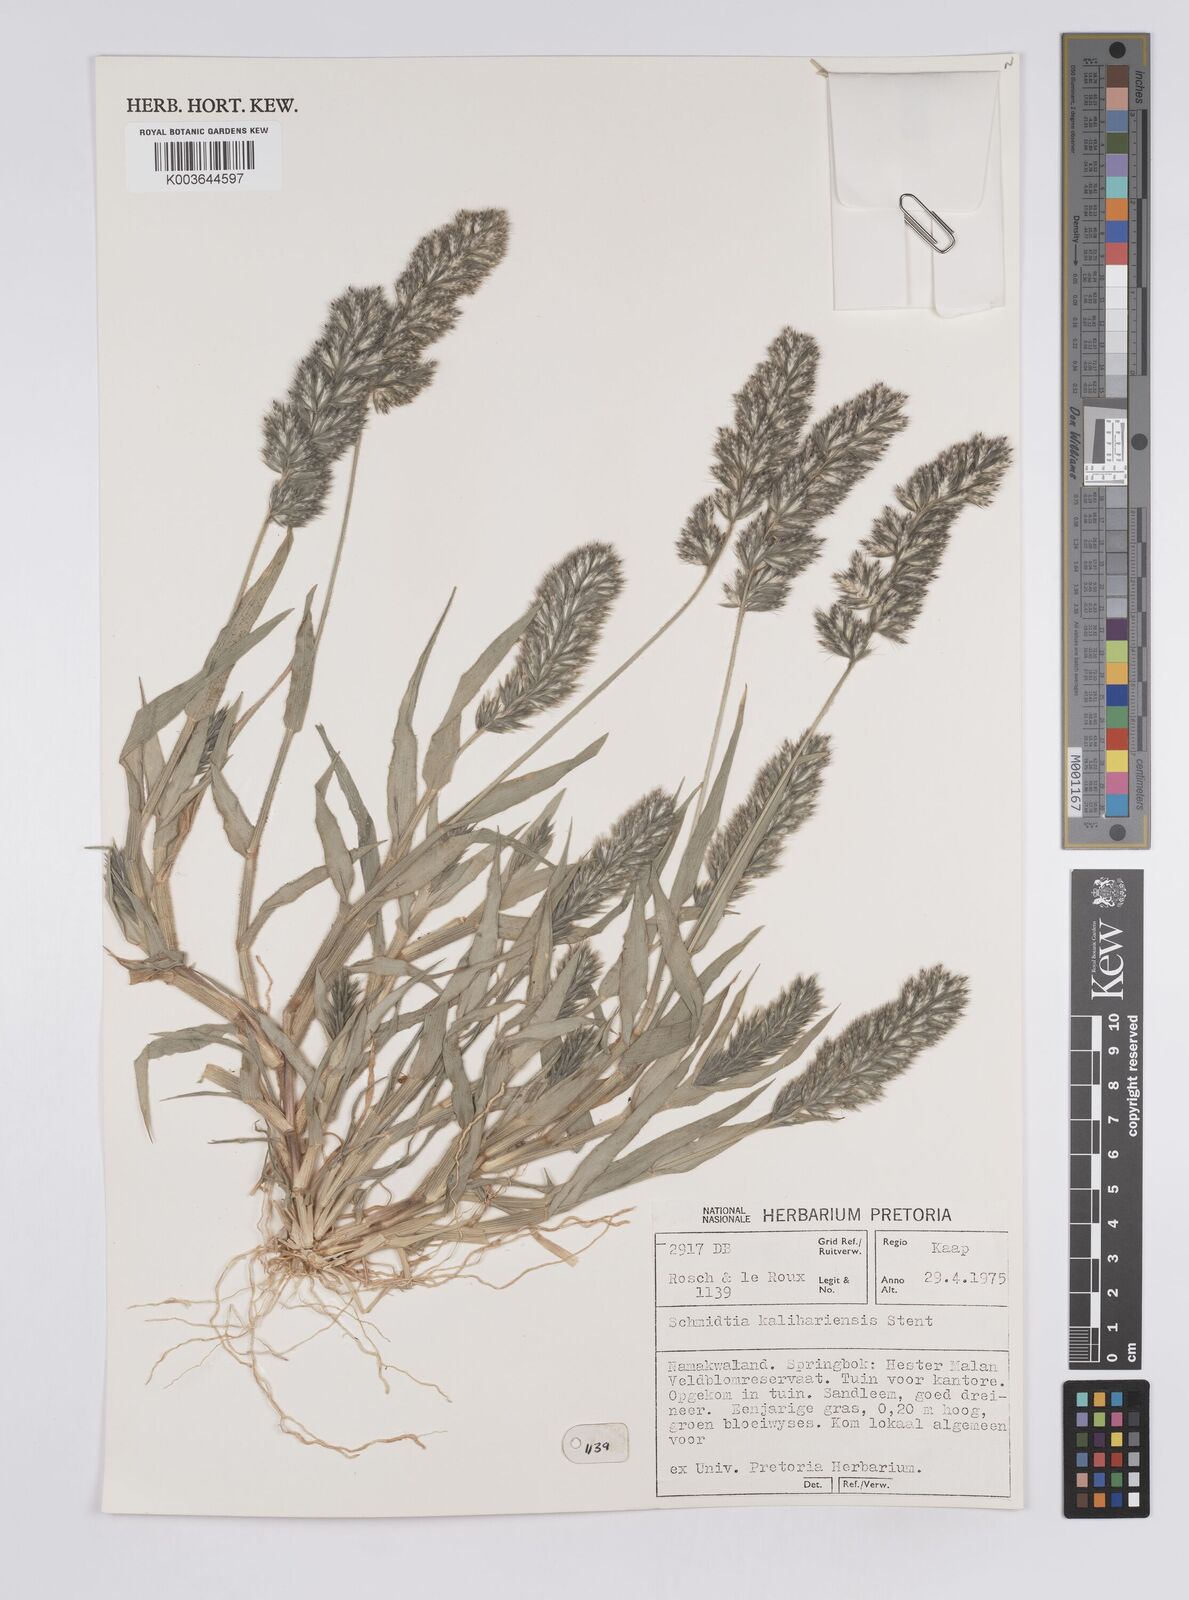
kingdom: Plantae
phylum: Tracheophyta
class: Liliopsida
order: Poales
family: Poaceae
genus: Schmidtia
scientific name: Schmidtia kalahariensis
